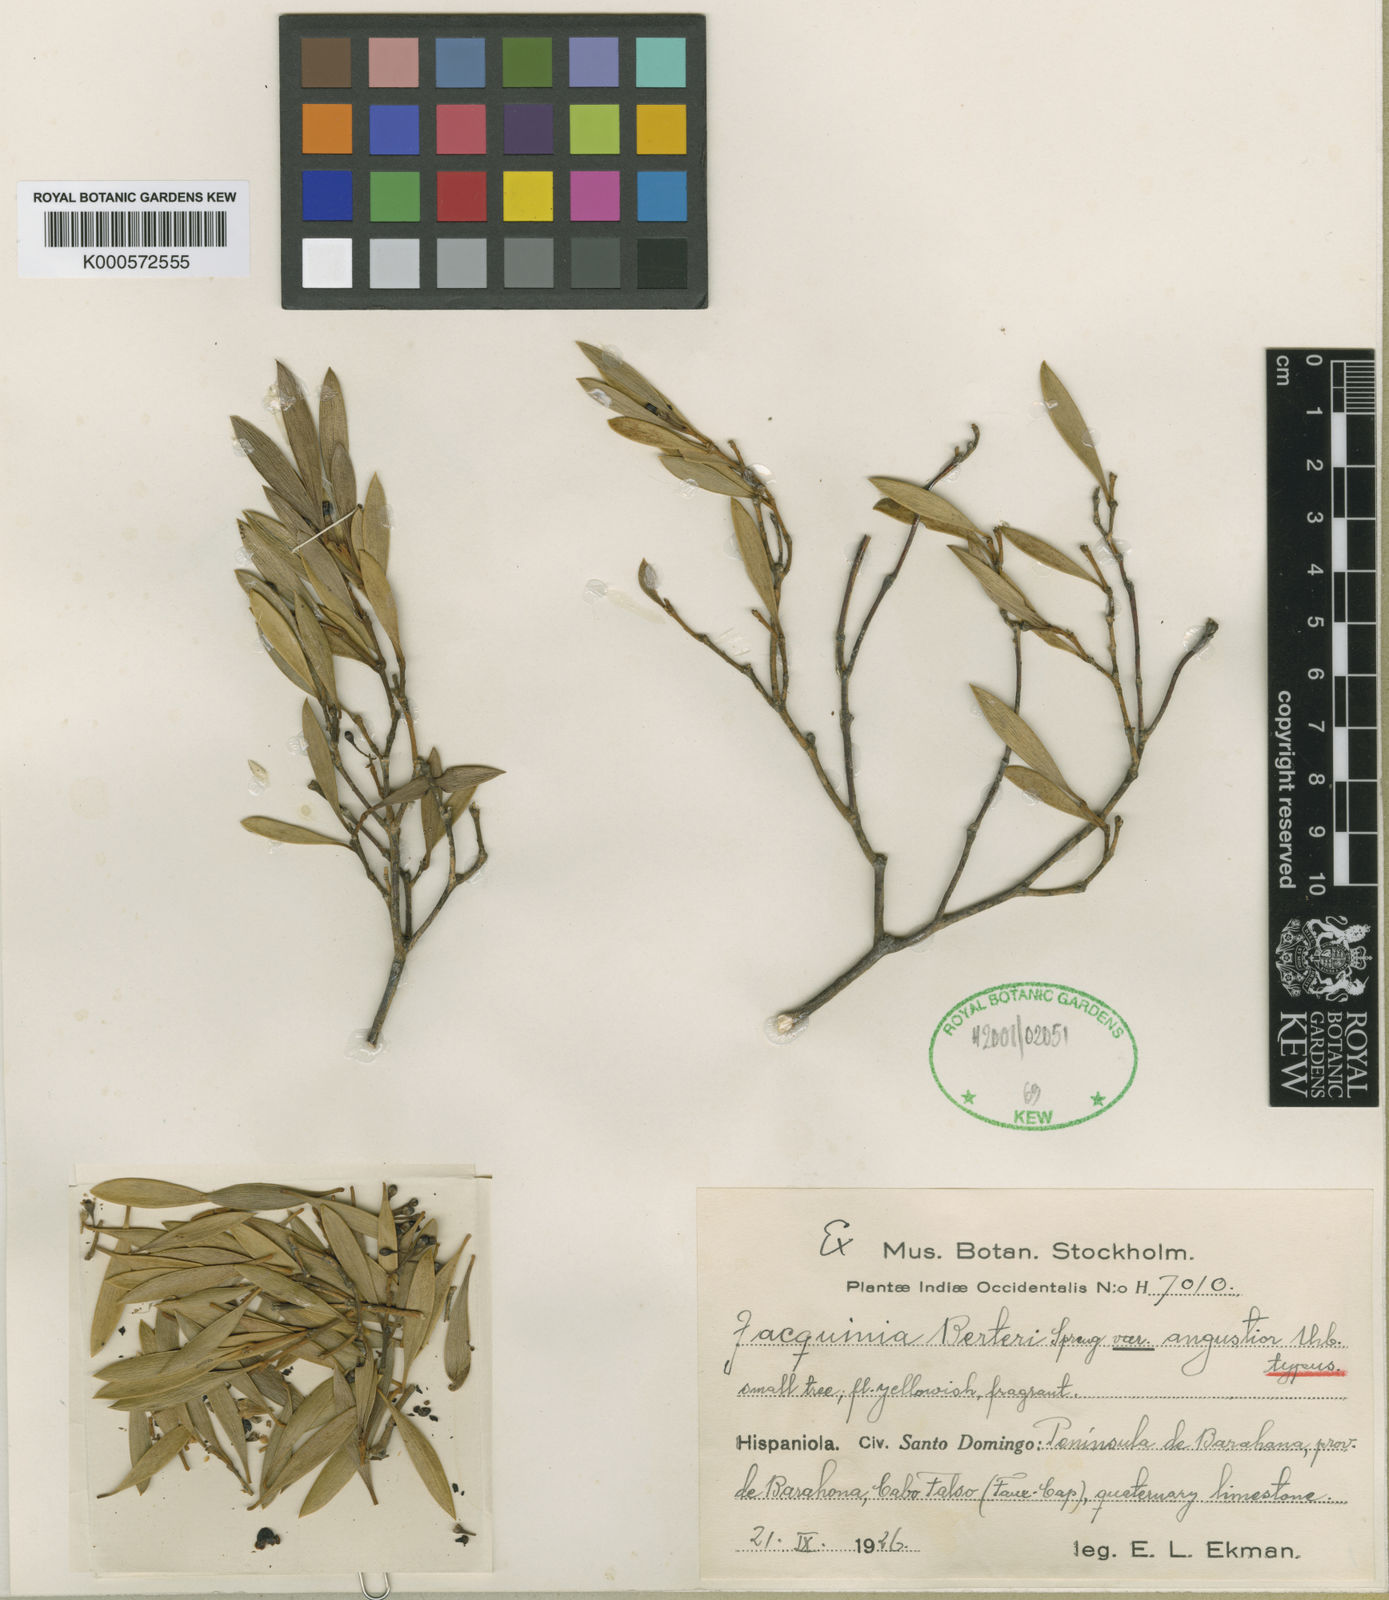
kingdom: Plantae
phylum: Tracheophyta
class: Magnoliopsida
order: Ericales
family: Primulaceae
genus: Jacquinia
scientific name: Jacquinia berteroi
